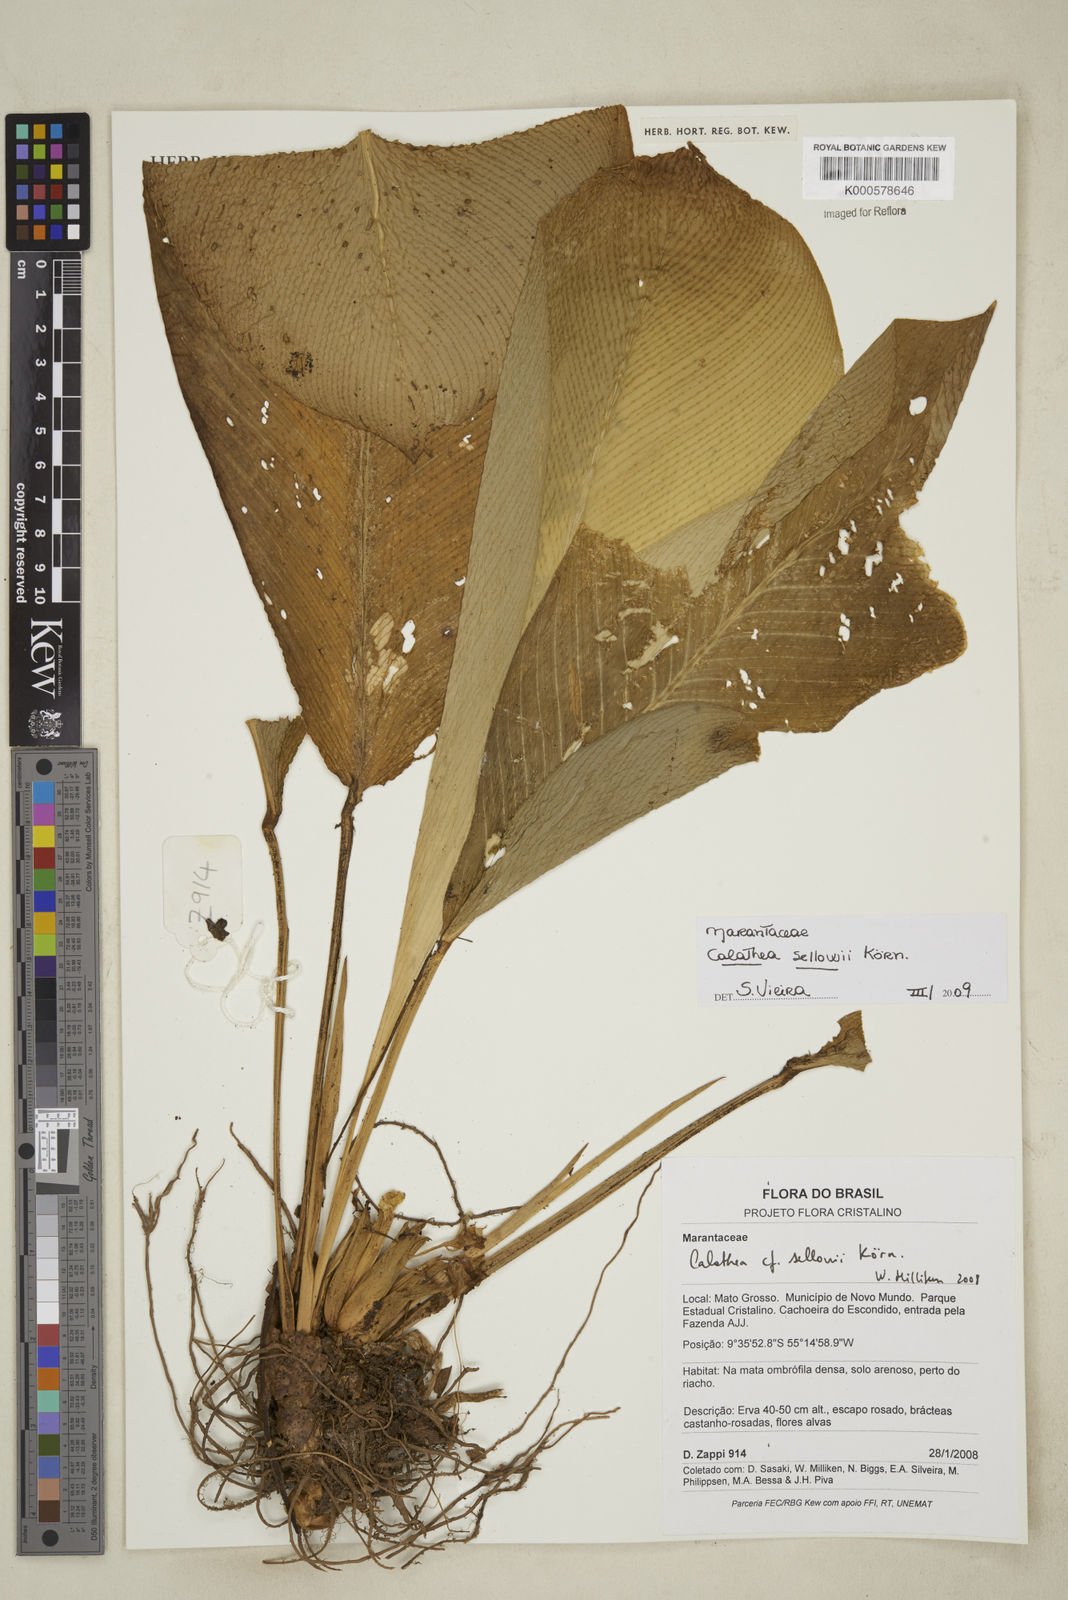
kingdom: Plantae
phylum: Tracheophyta
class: Liliopsida
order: Zingiberales
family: Marantaceae
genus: Calathea
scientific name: Calathea
